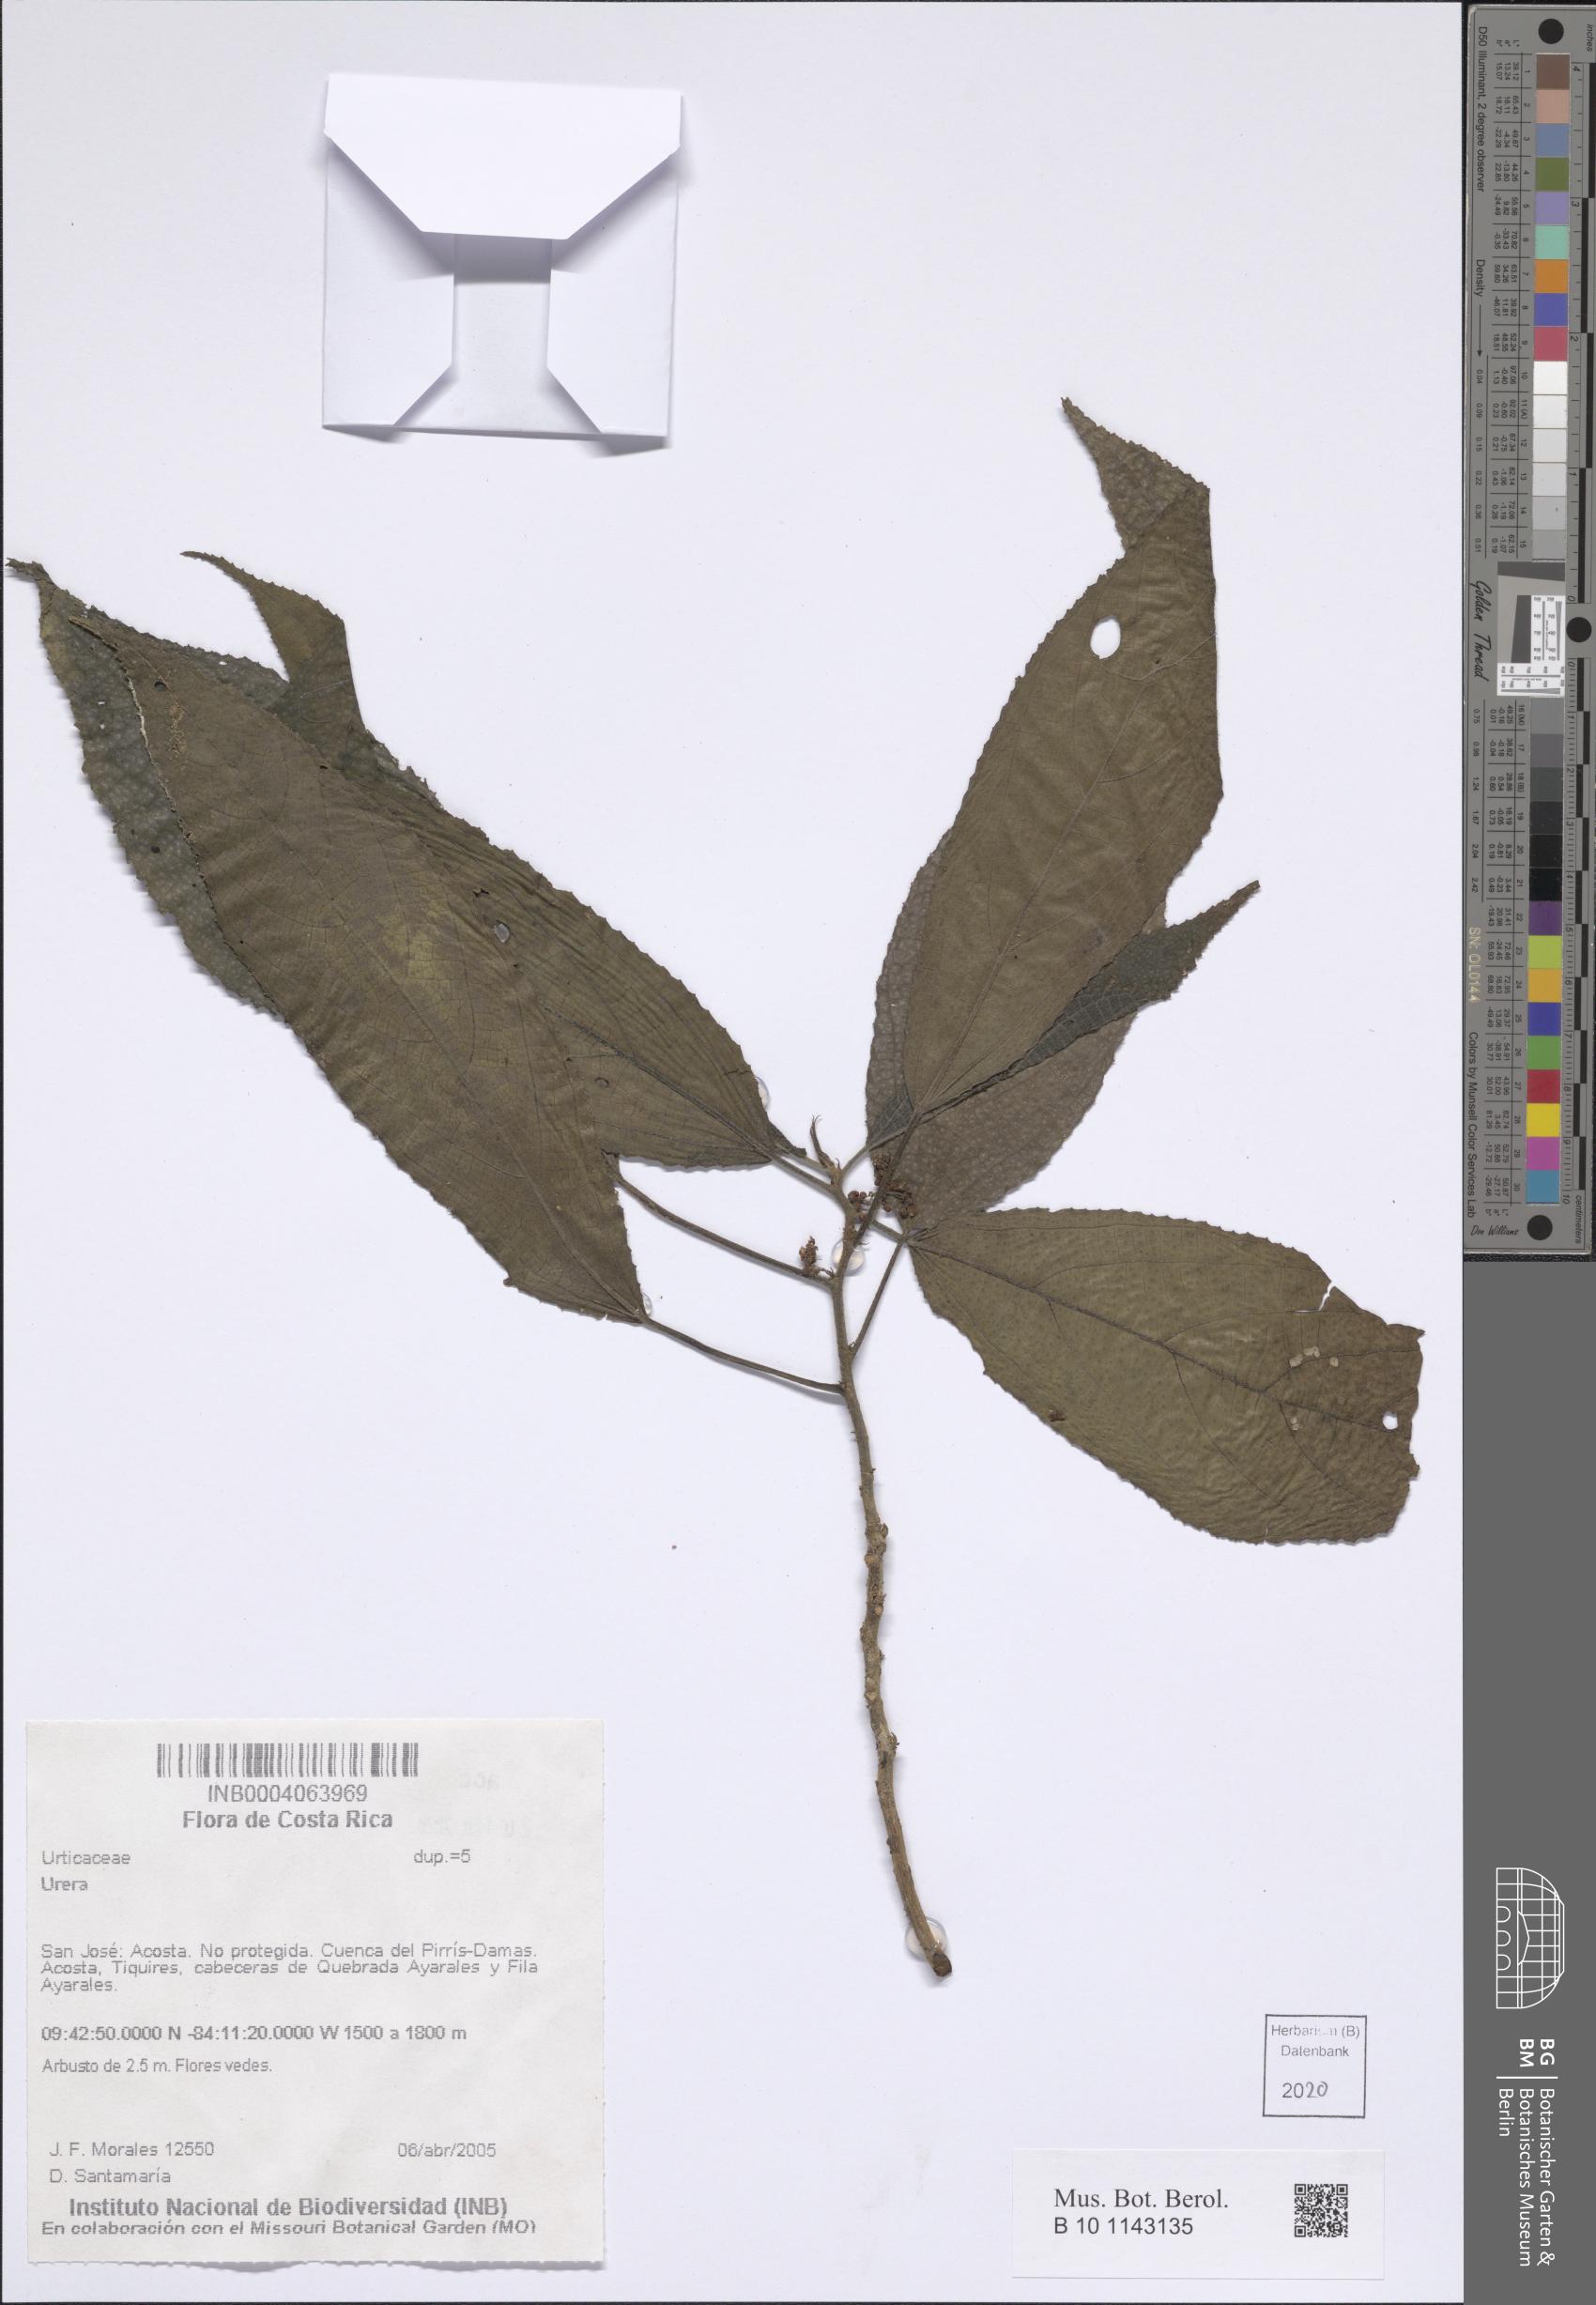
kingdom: Plantae
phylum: Tracheophyta
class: Magnoliopsida
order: Rosales
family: Urticaceae
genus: Urera
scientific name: Urera
